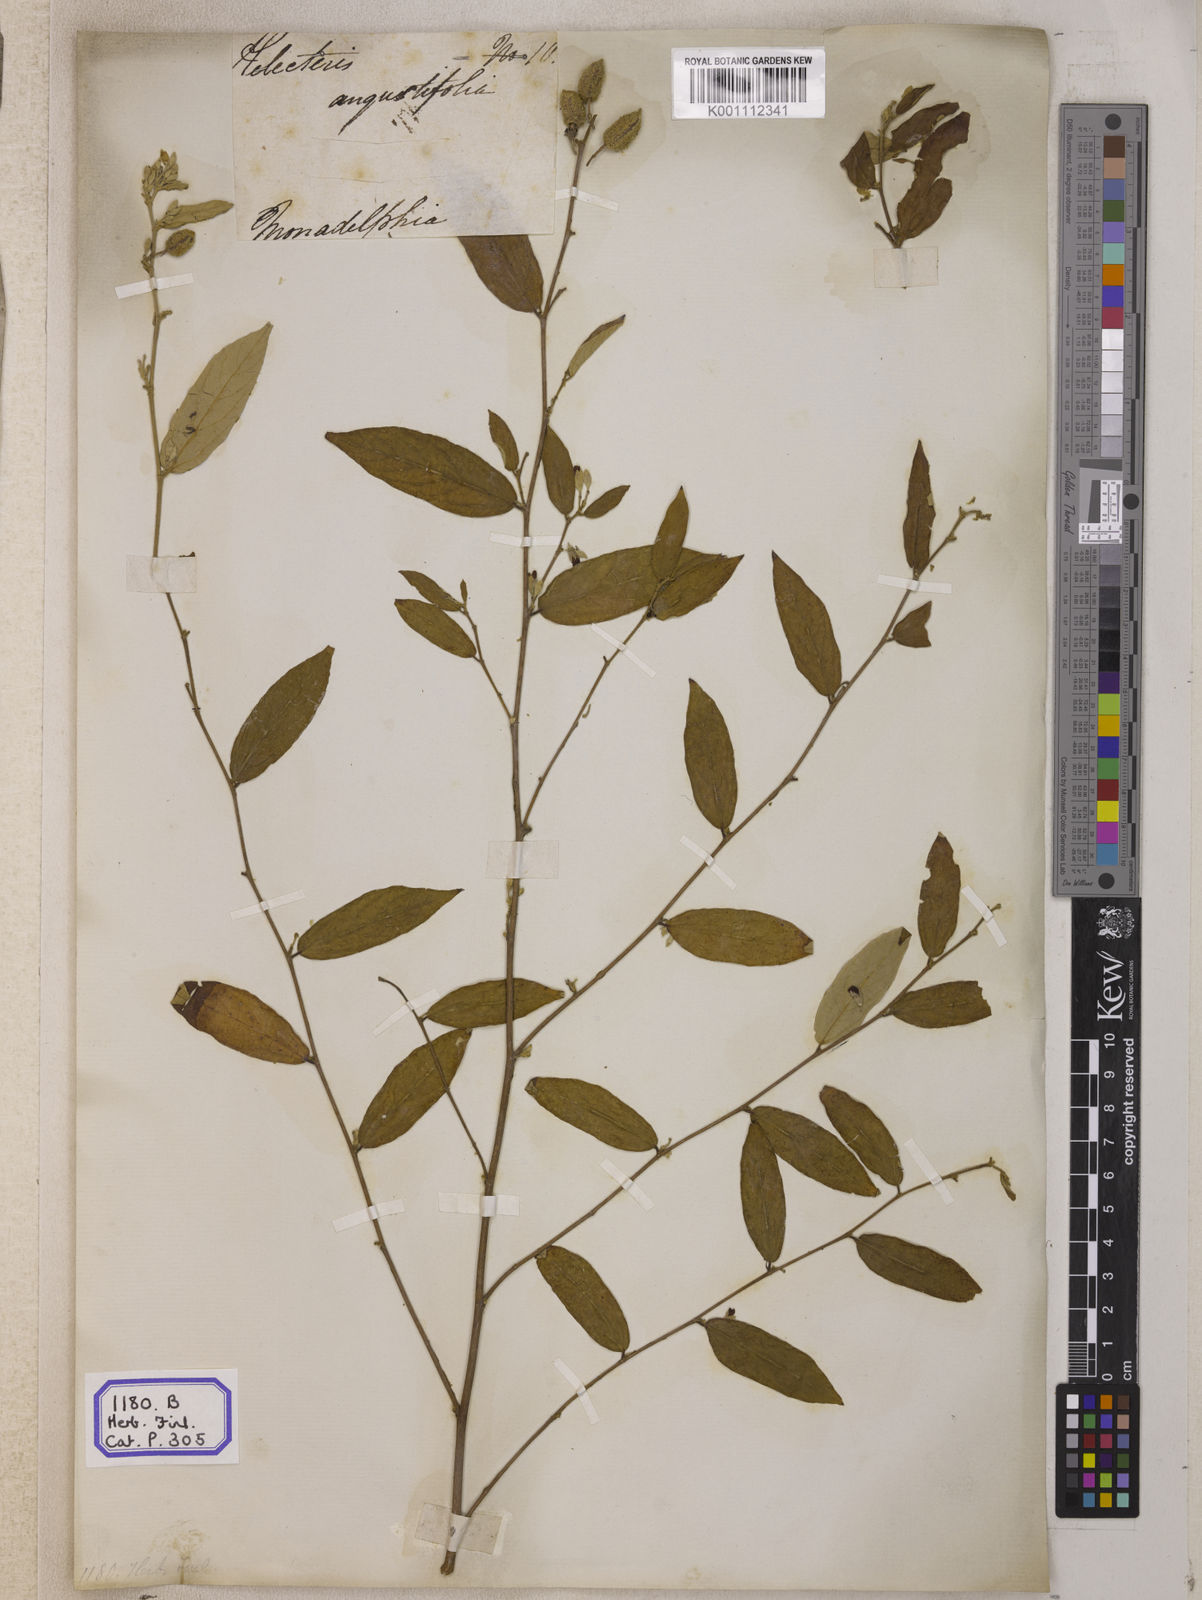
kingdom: Plantae
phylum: Tracheophyta
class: Magnoliopsida
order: Malvales
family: Malvaceae
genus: Helicteres
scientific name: Helicteres angustifolia
